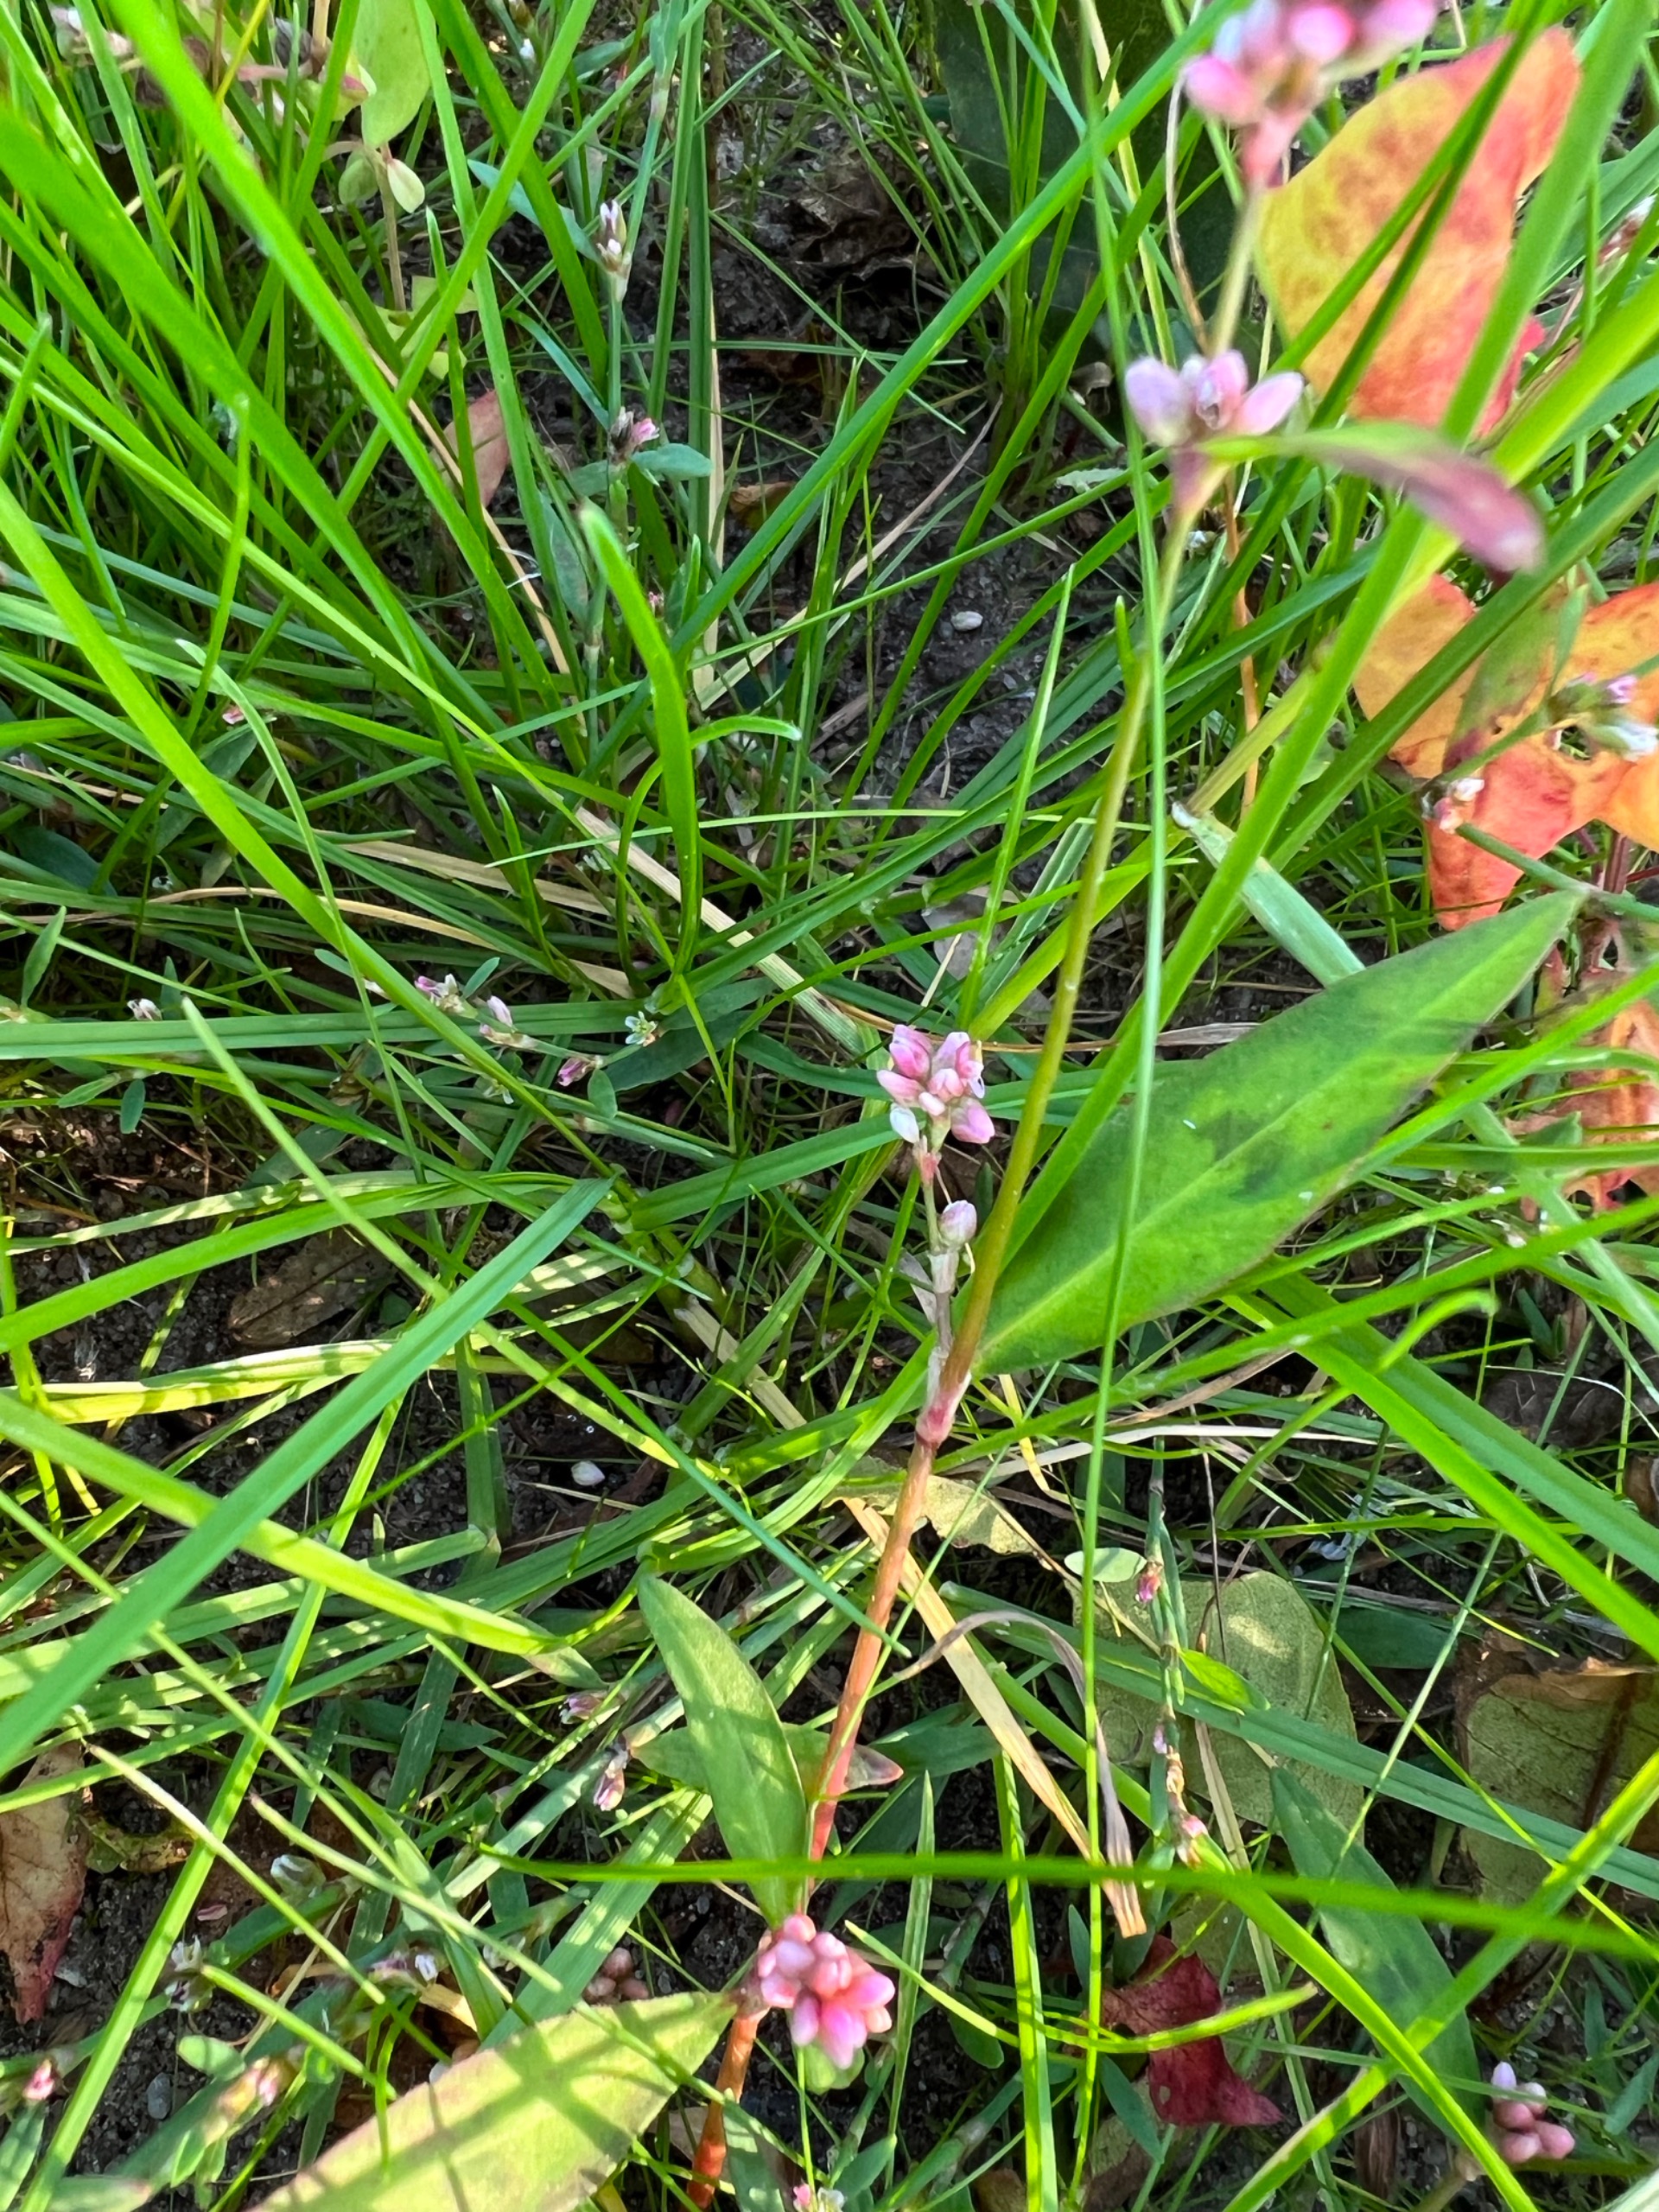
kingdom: Plantae
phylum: Tracheophyta
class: Magnoliopsida
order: Caryophyllales
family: Polygonaceae
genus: Persicaria
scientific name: Persicaria maculosa
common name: Fersken-pileurt
